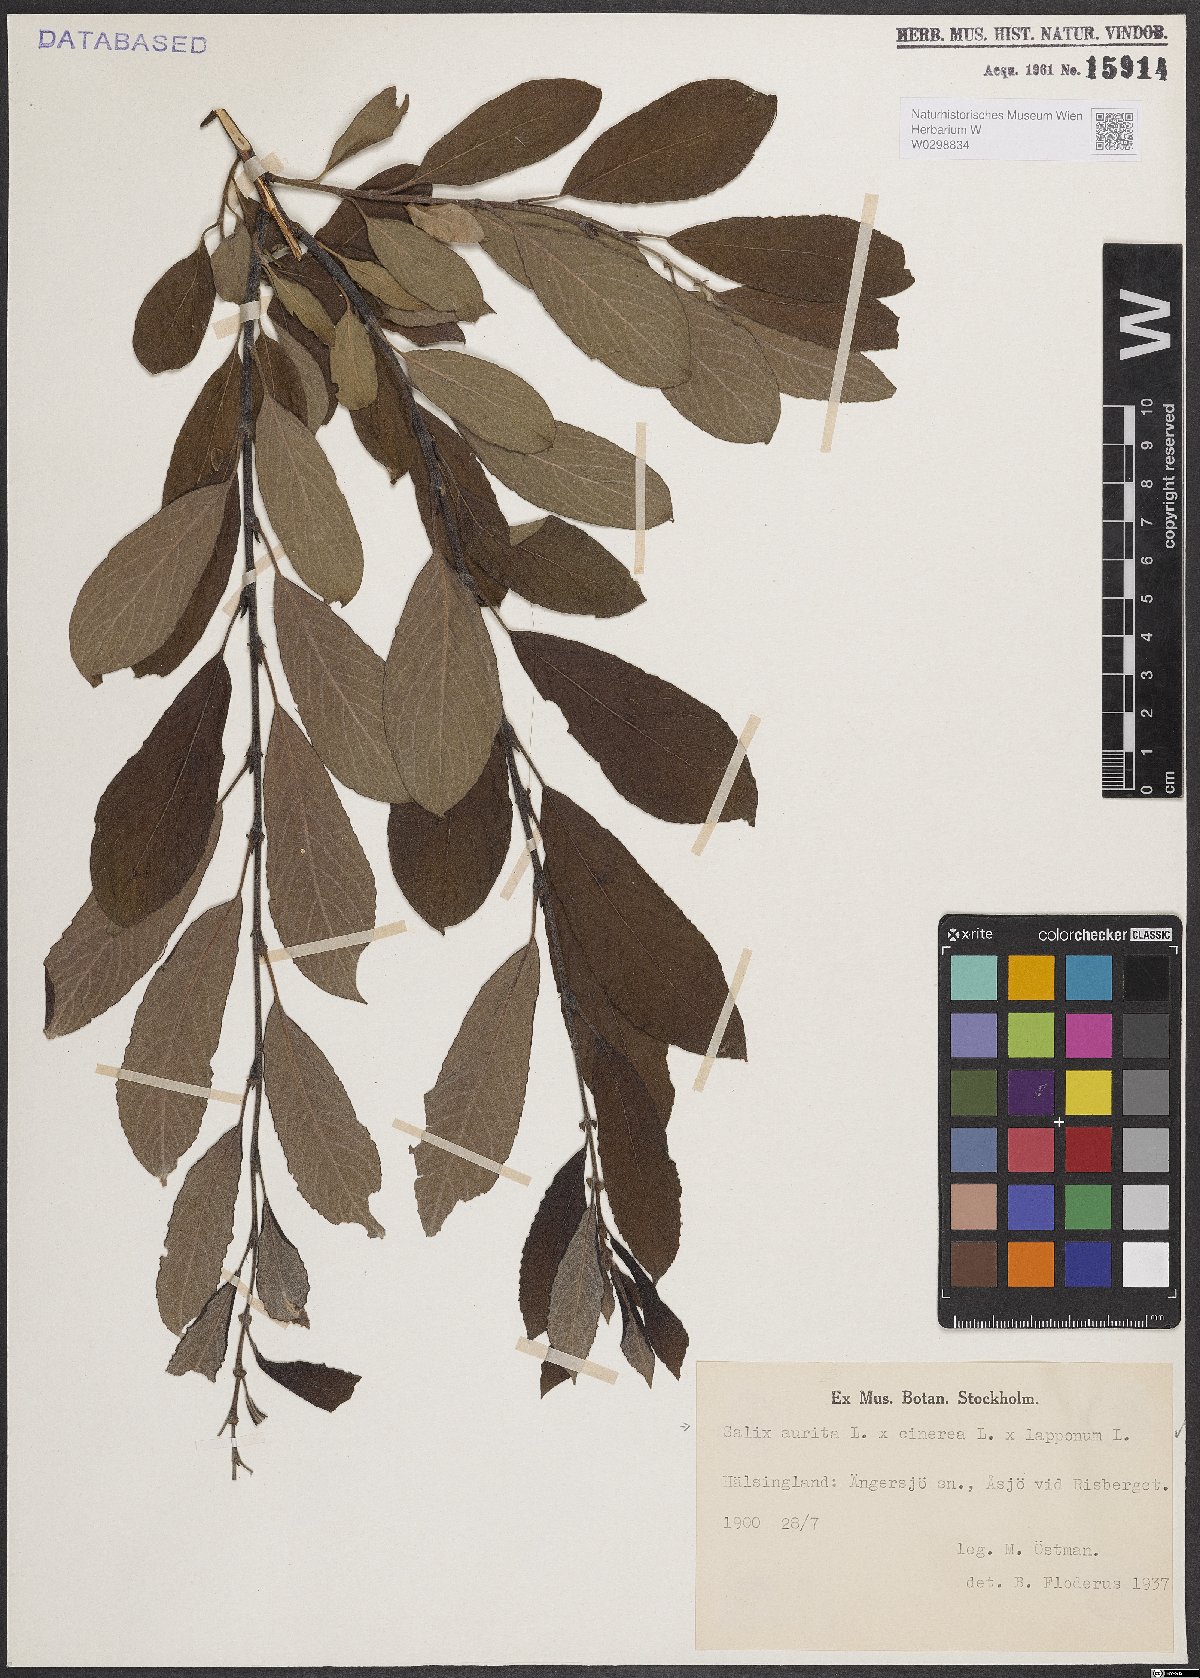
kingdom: Plantae
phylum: Tracheophyta
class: Magnoliopsida
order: Malpighiales
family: Salicaceae
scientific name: Salicaceae
